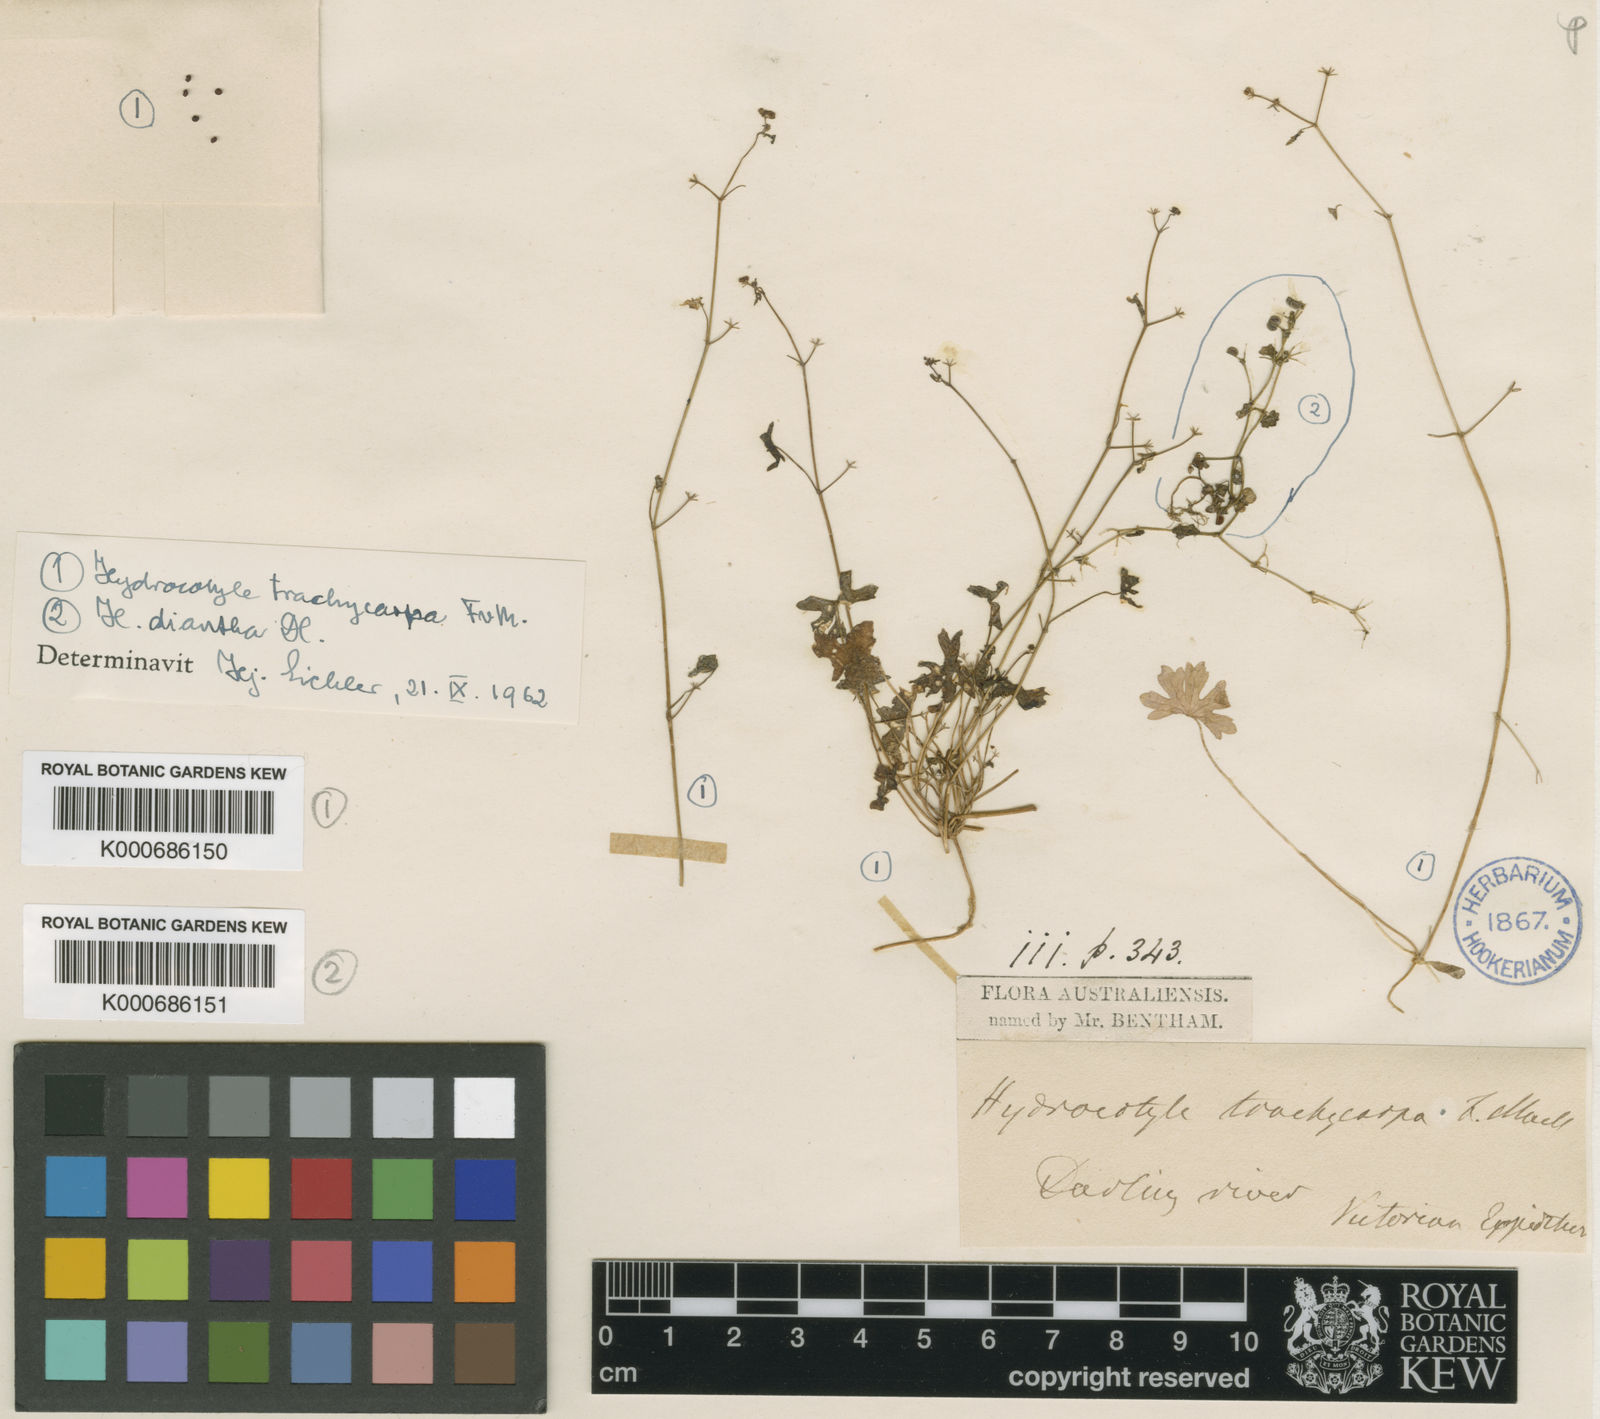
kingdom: Plantae
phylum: Tracheophyta
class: Magnoliopsida
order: Apiales
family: Araliaceae
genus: Hydrocotyle
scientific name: Hydrocotyle trachycarpa
